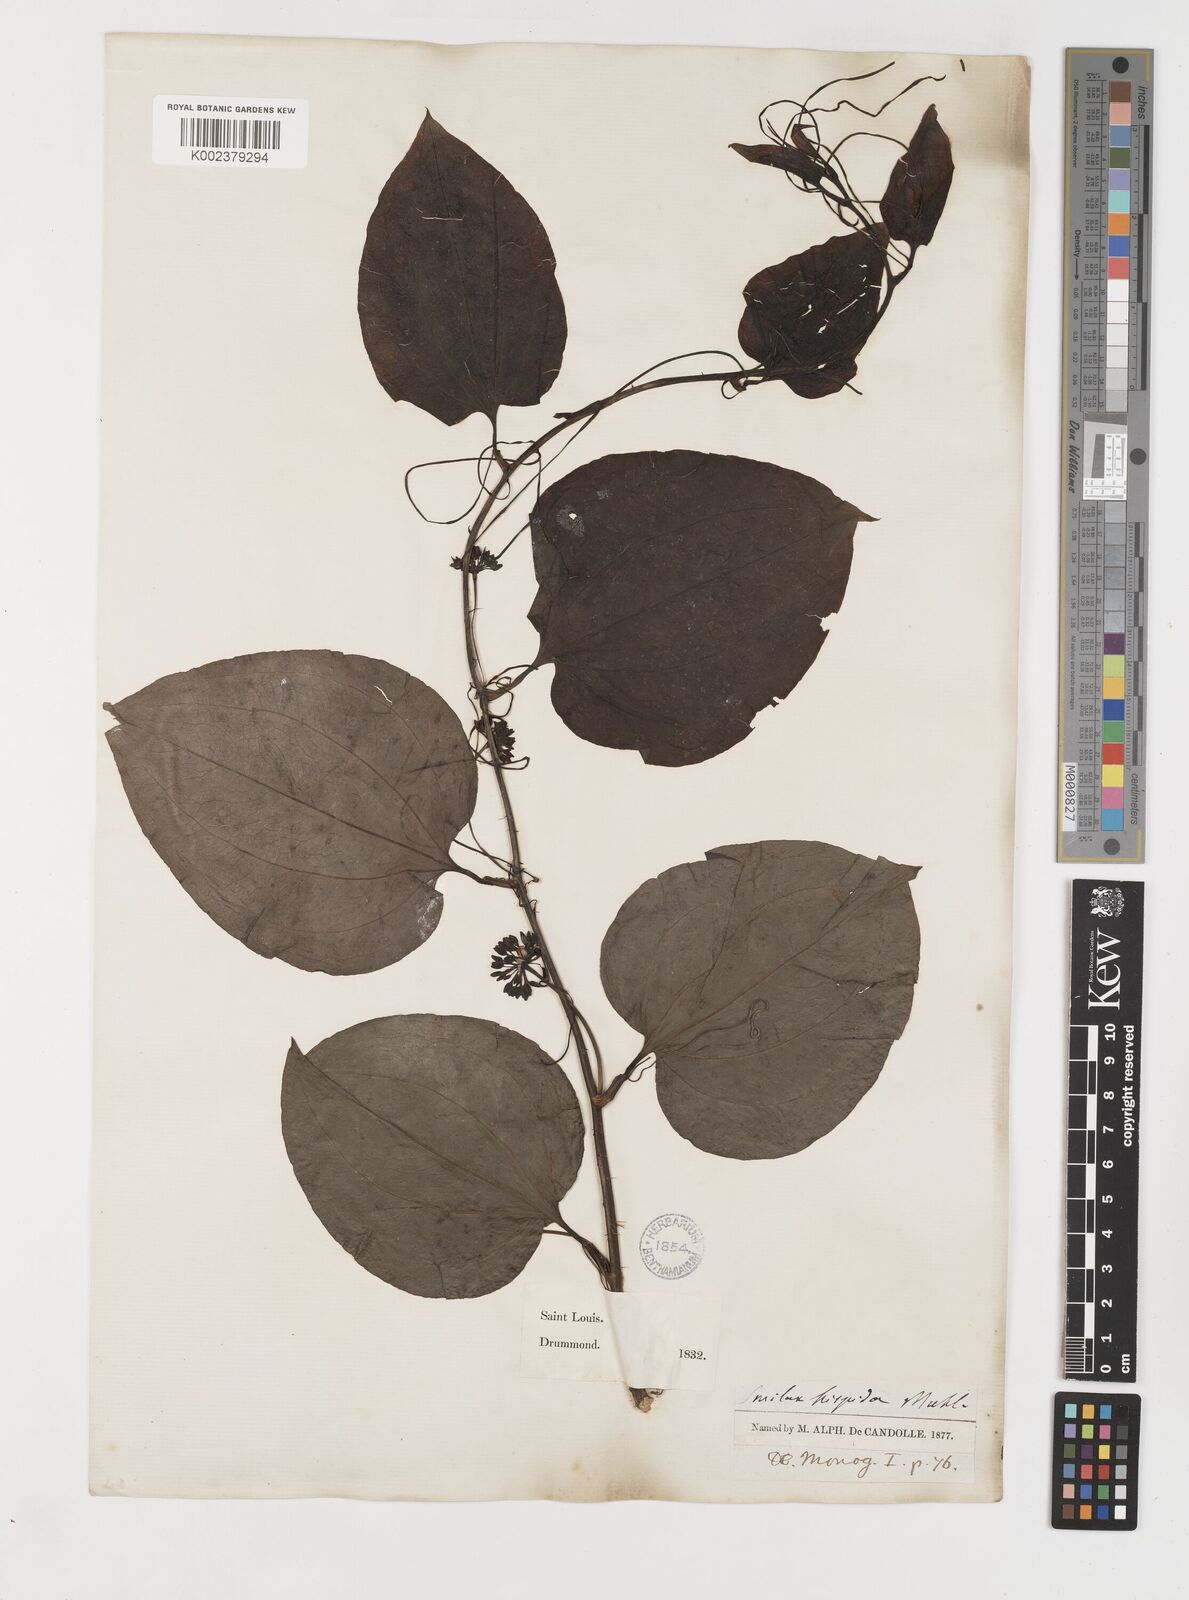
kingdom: Plantae
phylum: Tracheophyta
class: Liliopsida
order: Liliales
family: Smilacaceae
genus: Smilax
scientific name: Smilax tamnoides
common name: Hellfetter
